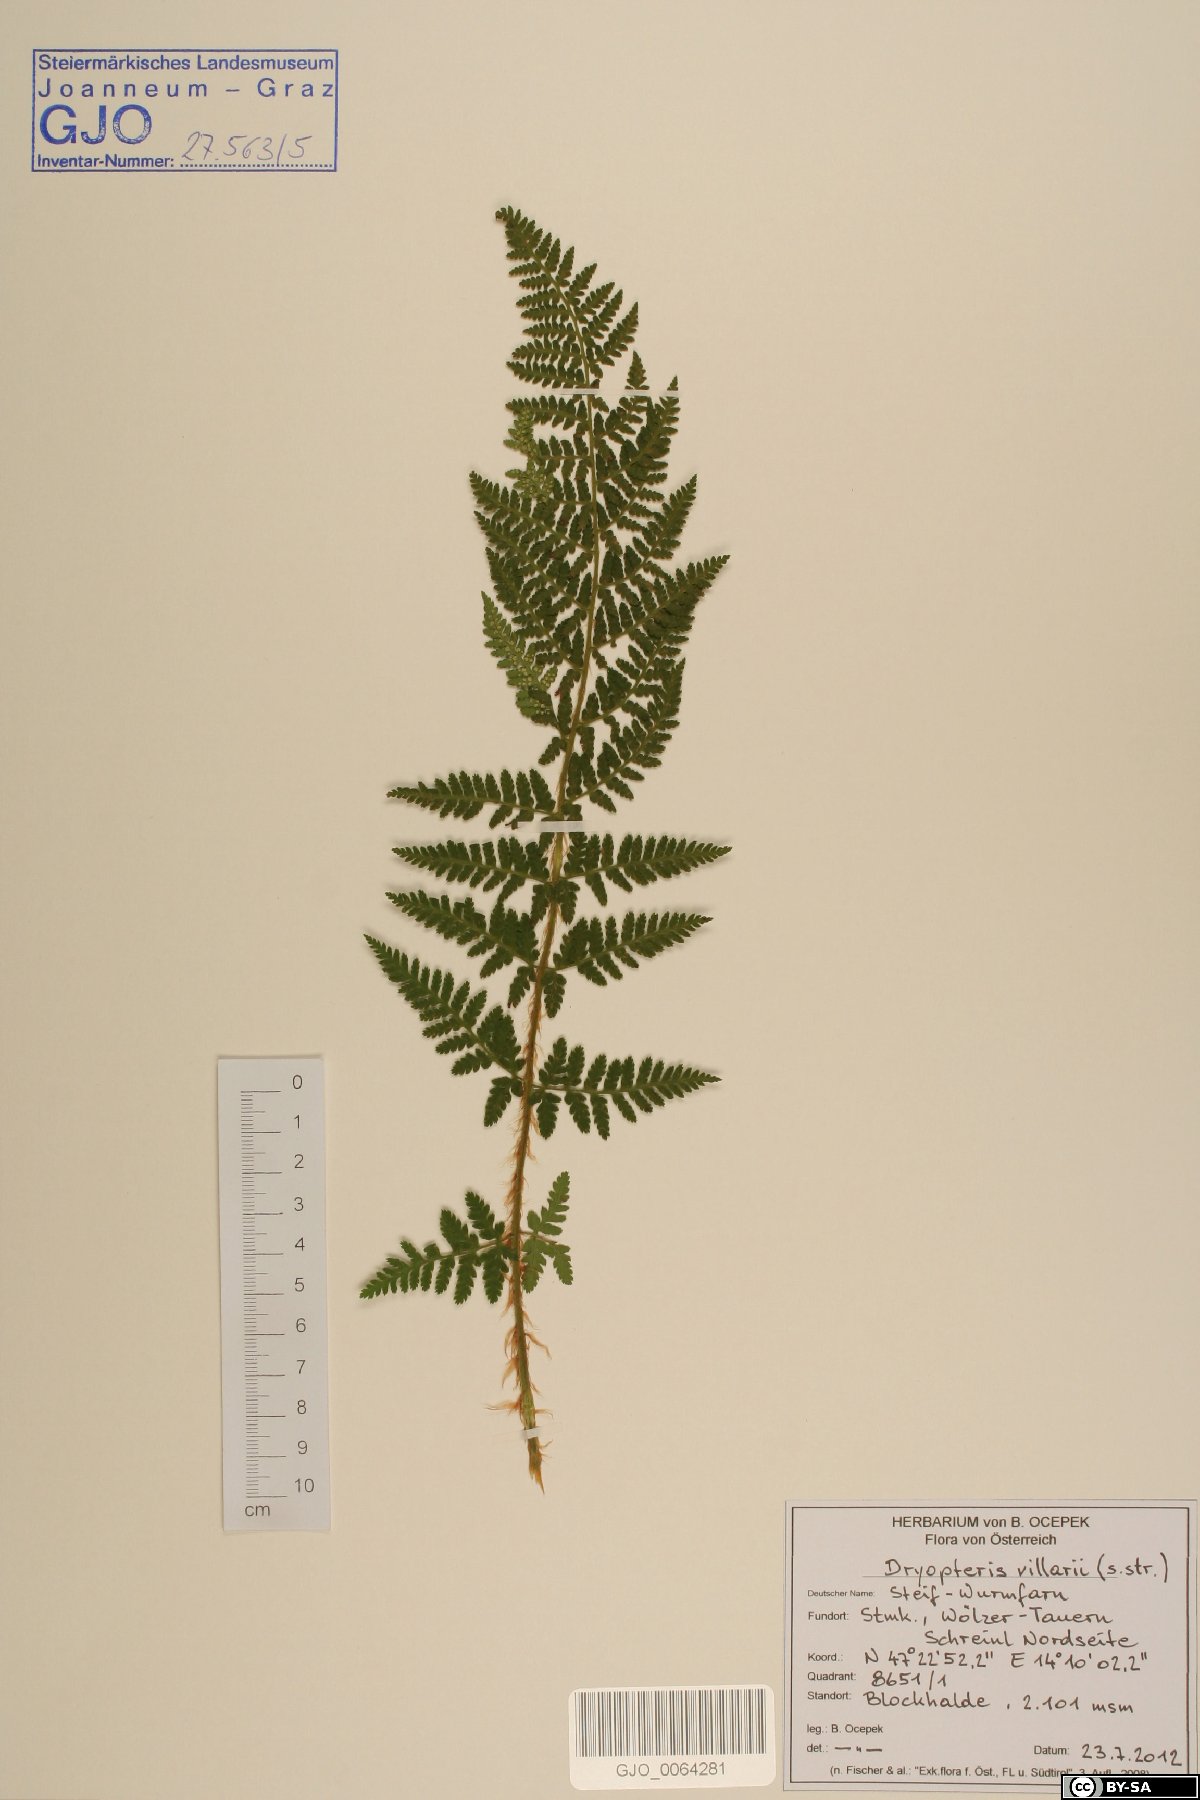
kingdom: Plantae
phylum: Tracheophyta
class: Polypodiopsida
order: Polypodiales
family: Dryopteridaceae
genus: Dryopteris
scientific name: Dryopteris villarii
